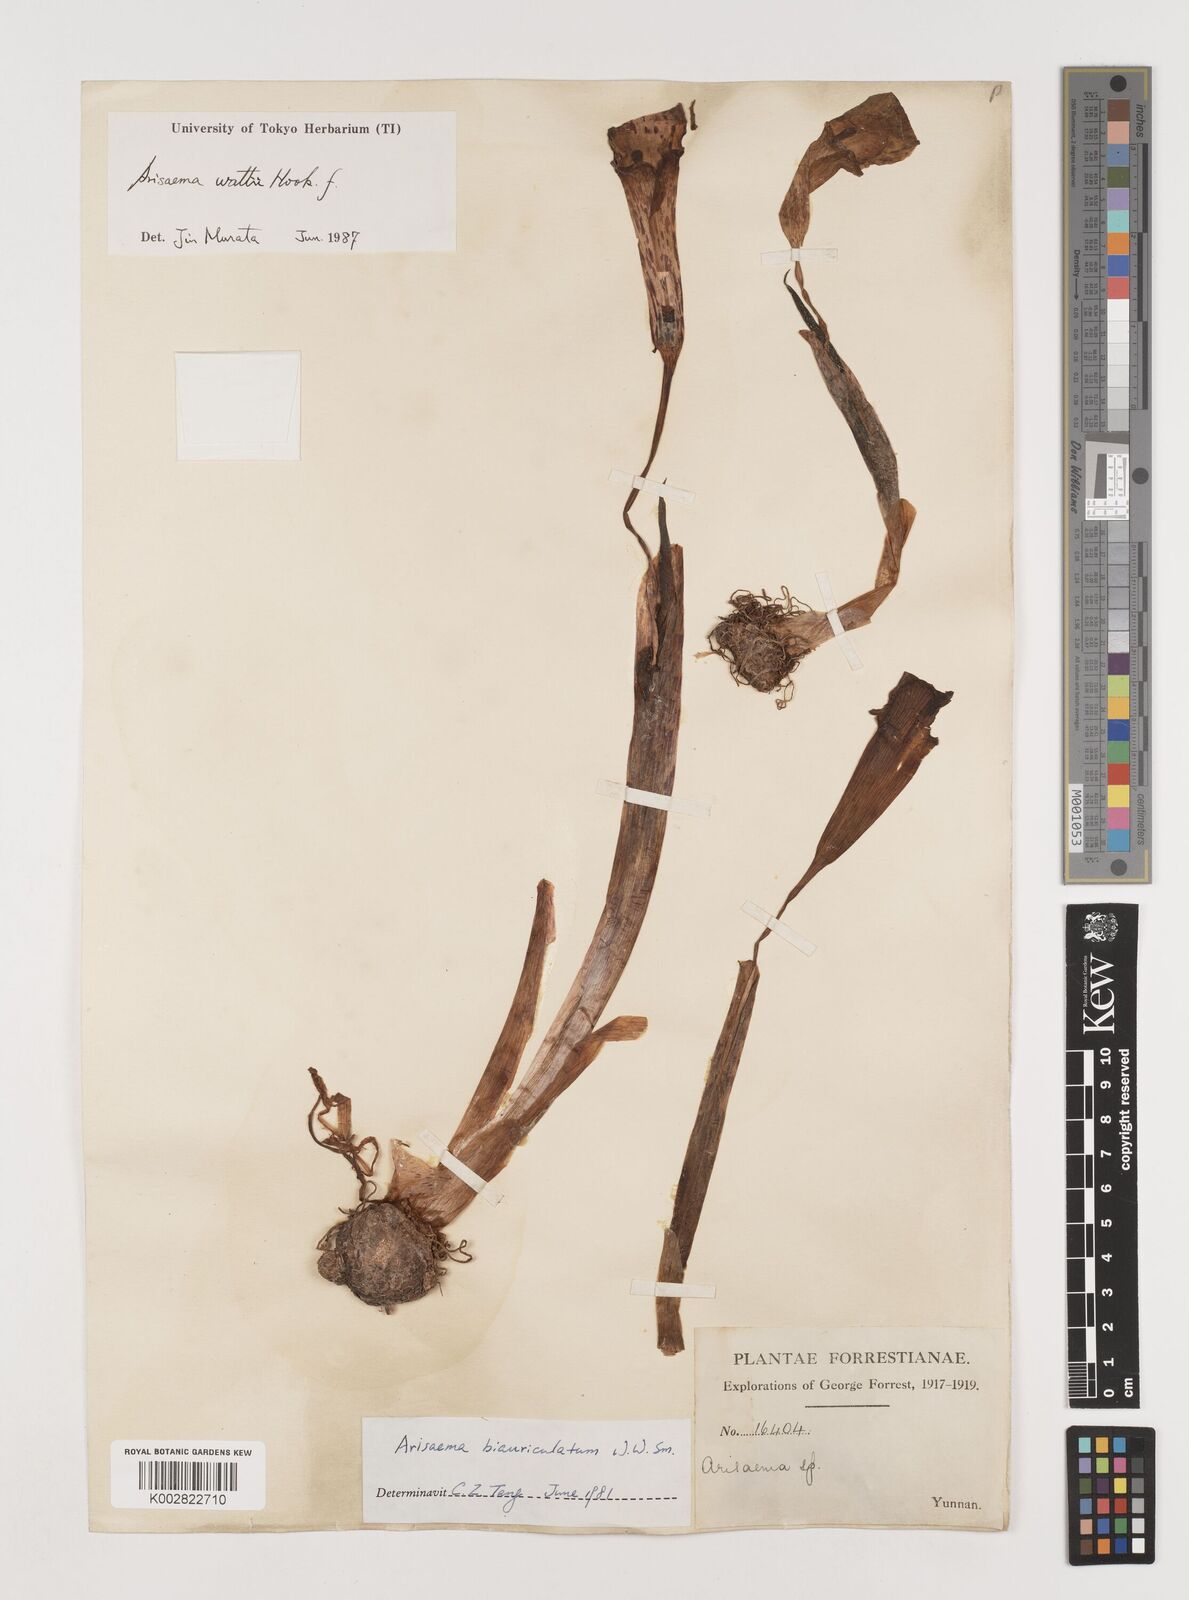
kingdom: Plantae
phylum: Tracheophyta
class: Liliopsida
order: Alismatales
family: Araceae
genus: Arisaema
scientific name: Arisaema wattii
